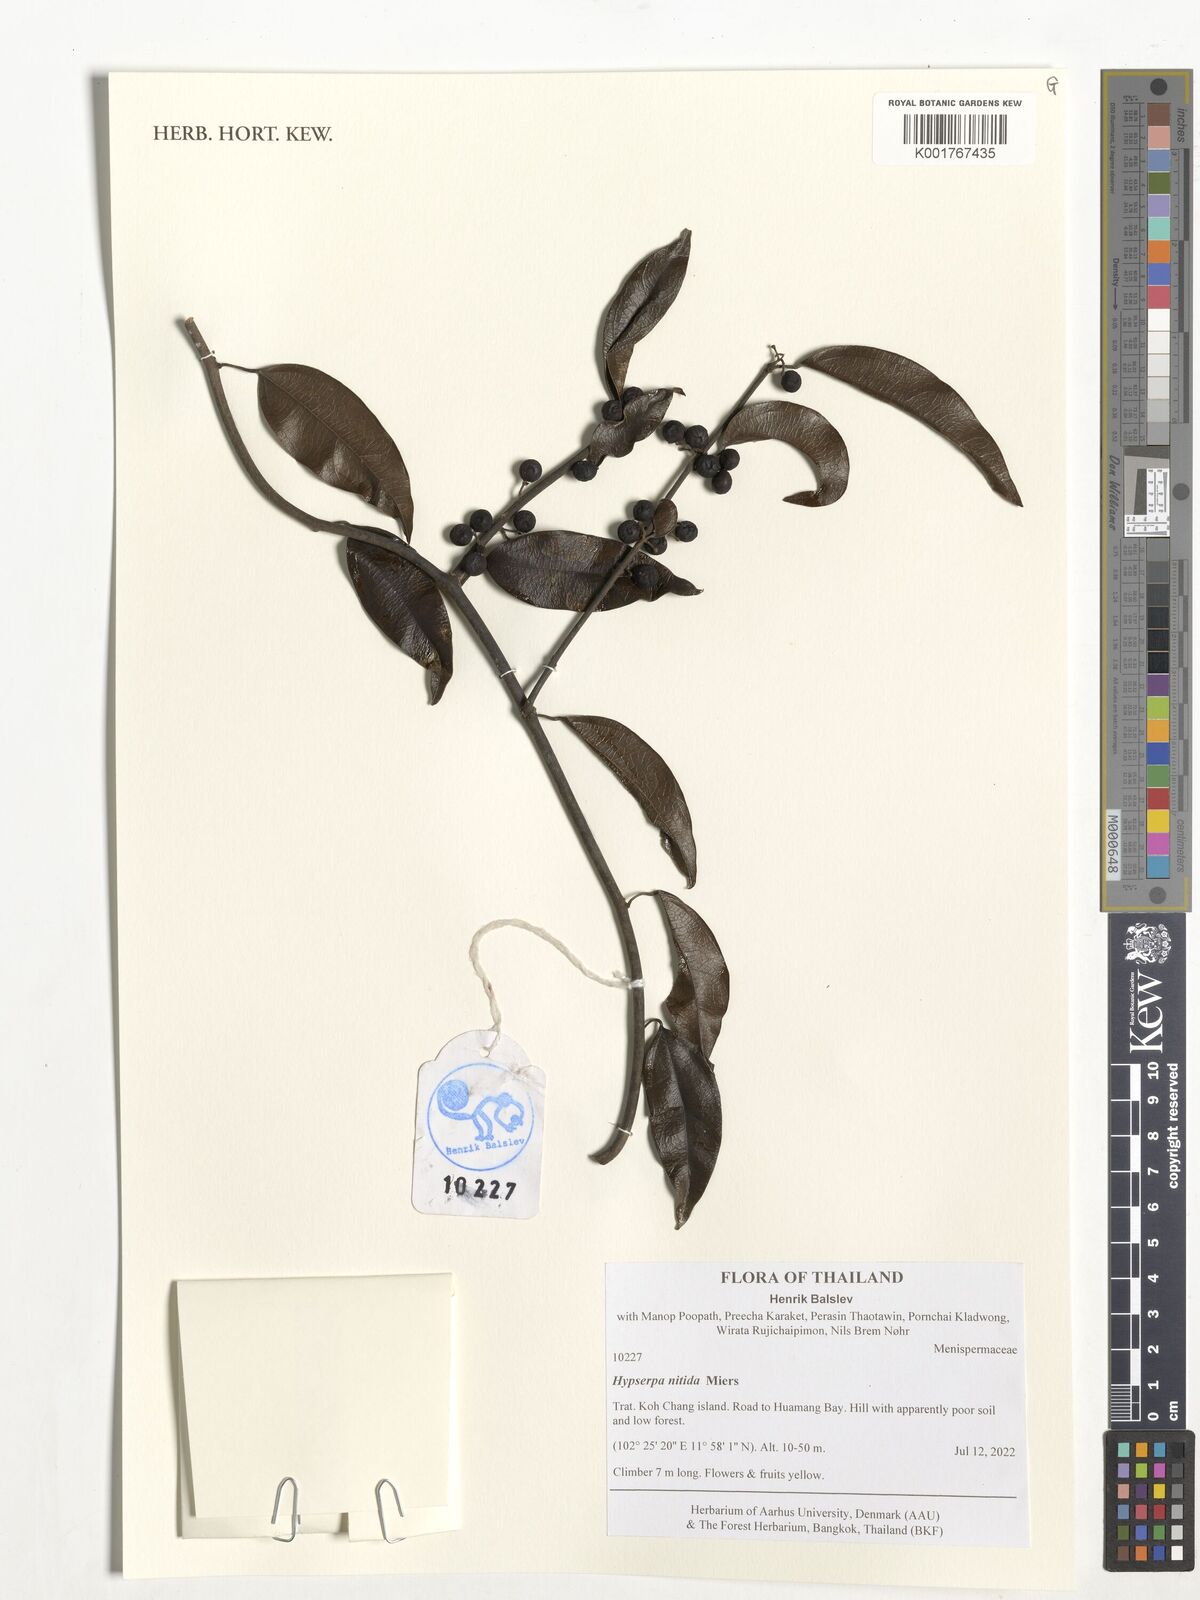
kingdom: Plantae
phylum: Tracheophyta
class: Magnoliopsida
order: Ranunculales
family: Menispermaceae
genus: Hypserpa
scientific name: Hypserpa nitida
